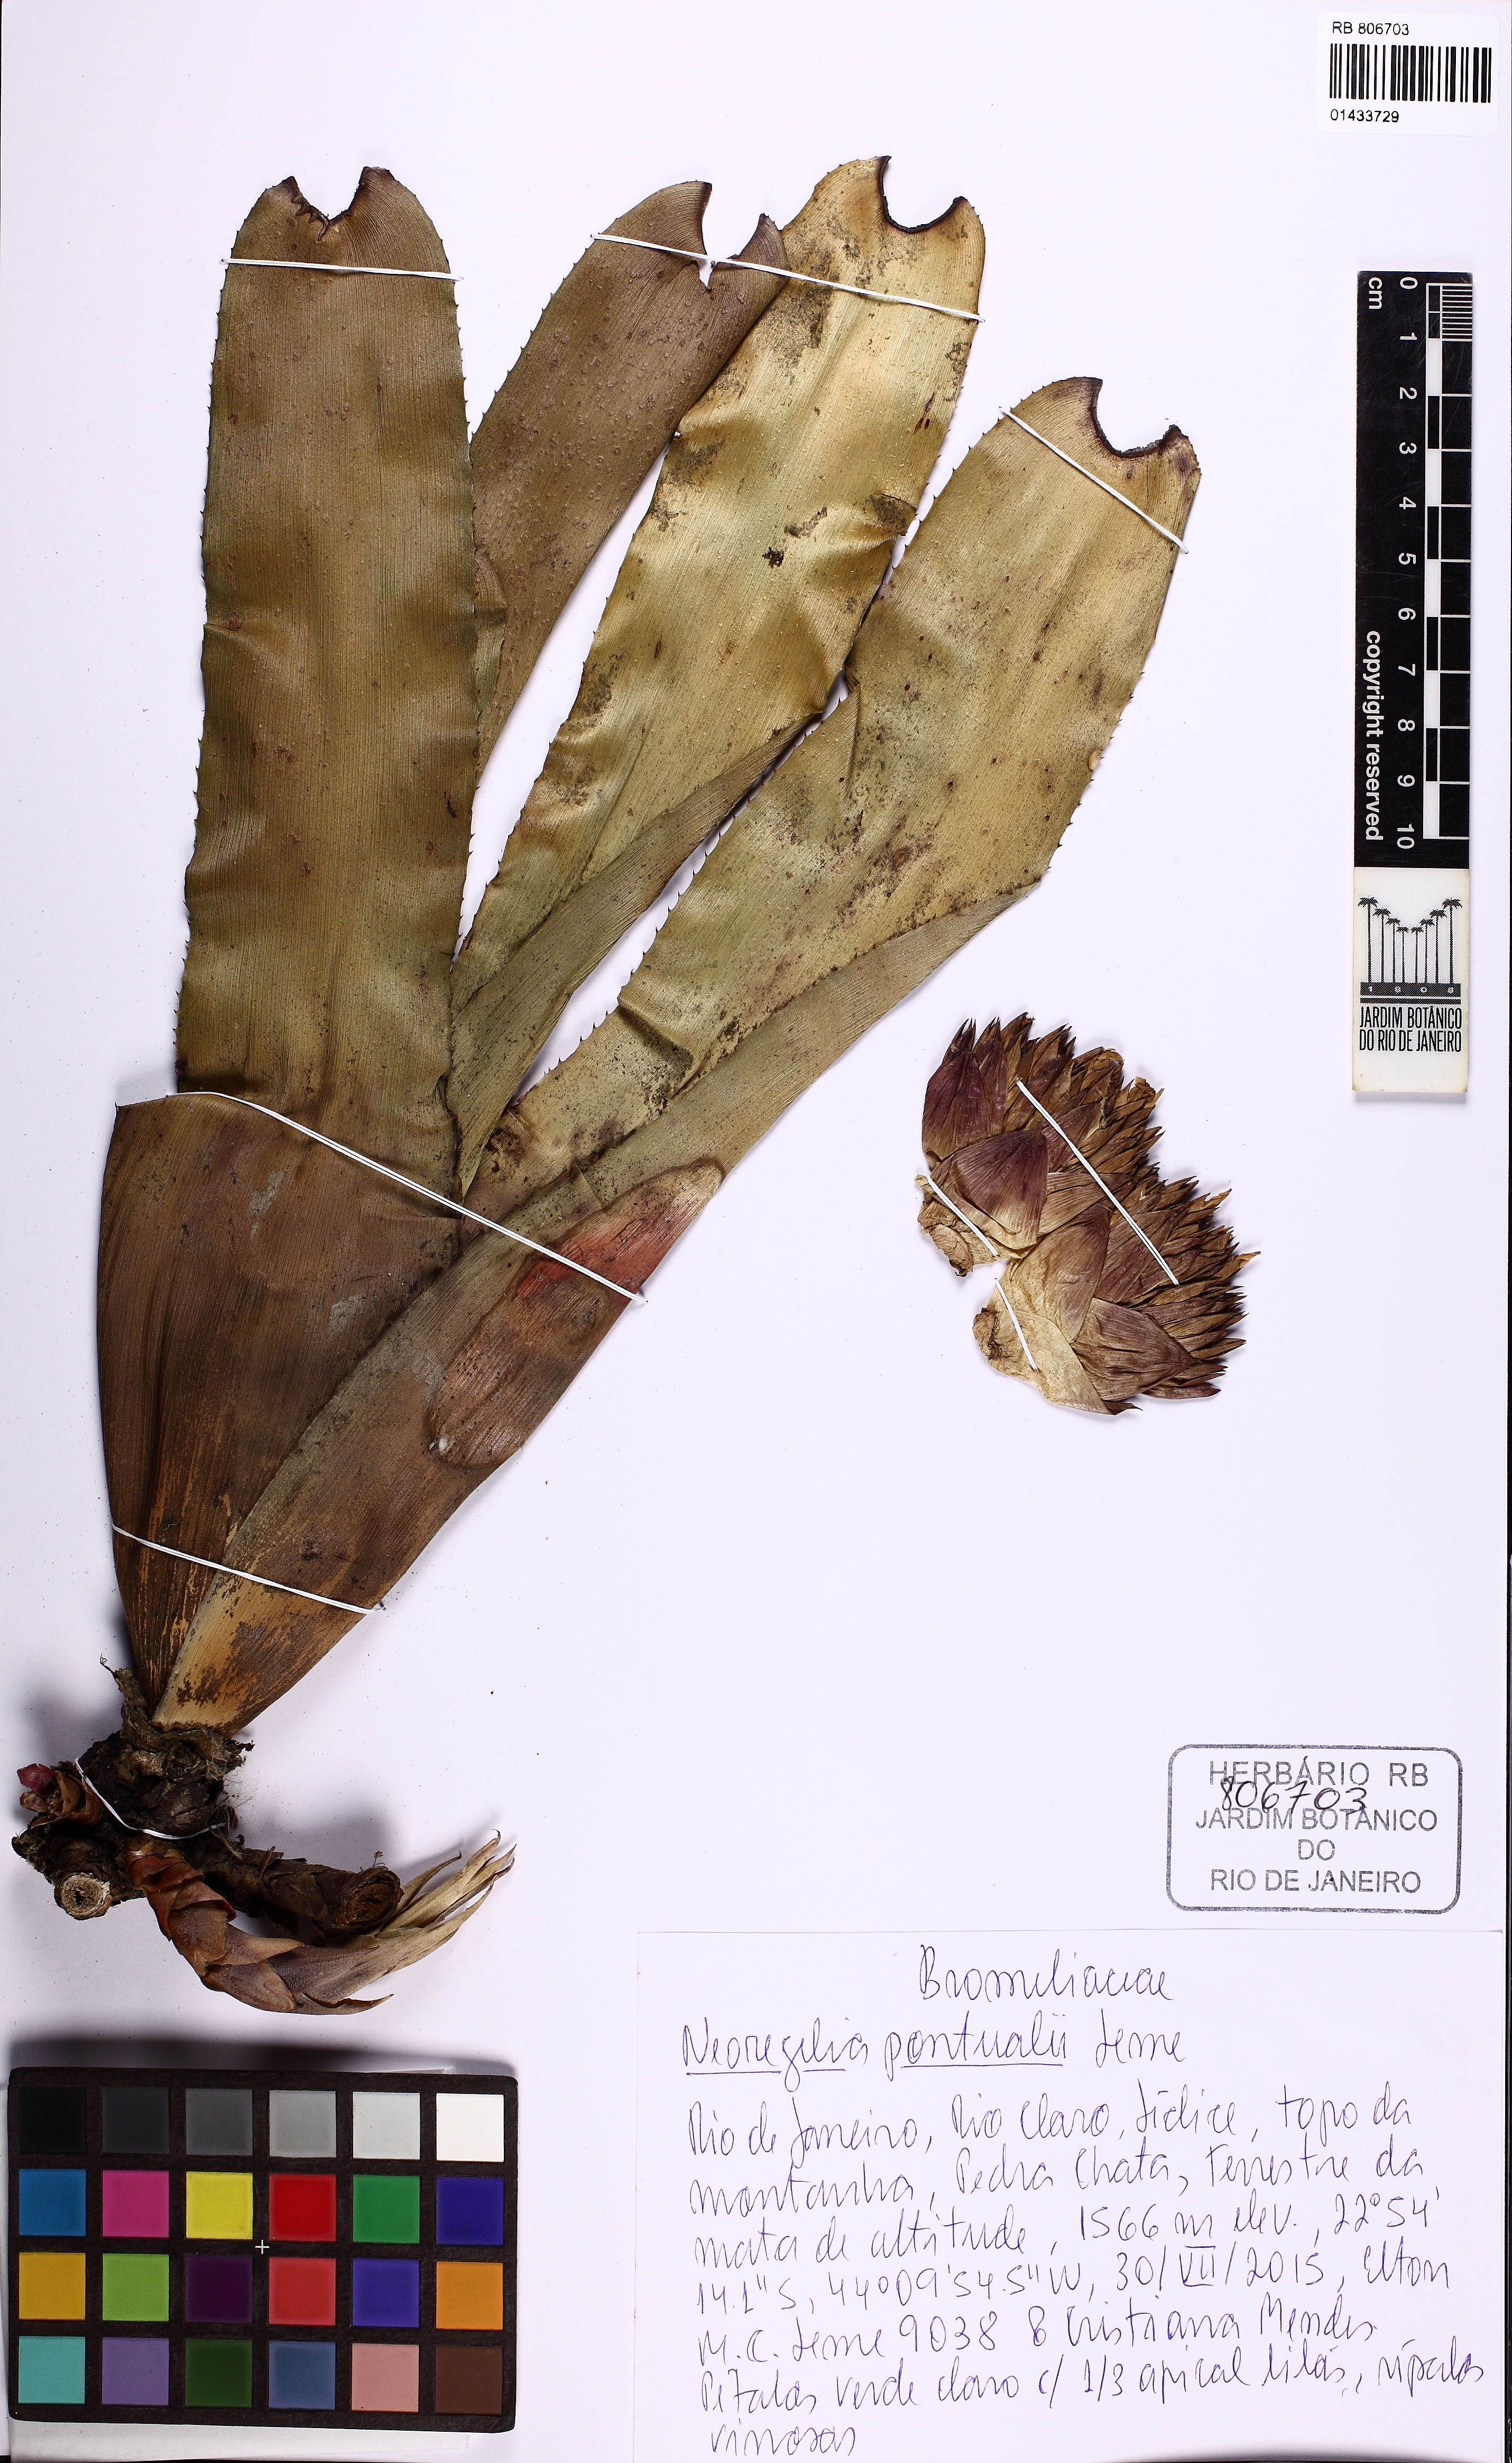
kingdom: Plantae
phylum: Tracheophyta
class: Liliopsida
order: Poales
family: Bromeliaceae
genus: Neoregelia
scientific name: Neoregelia pontualii
